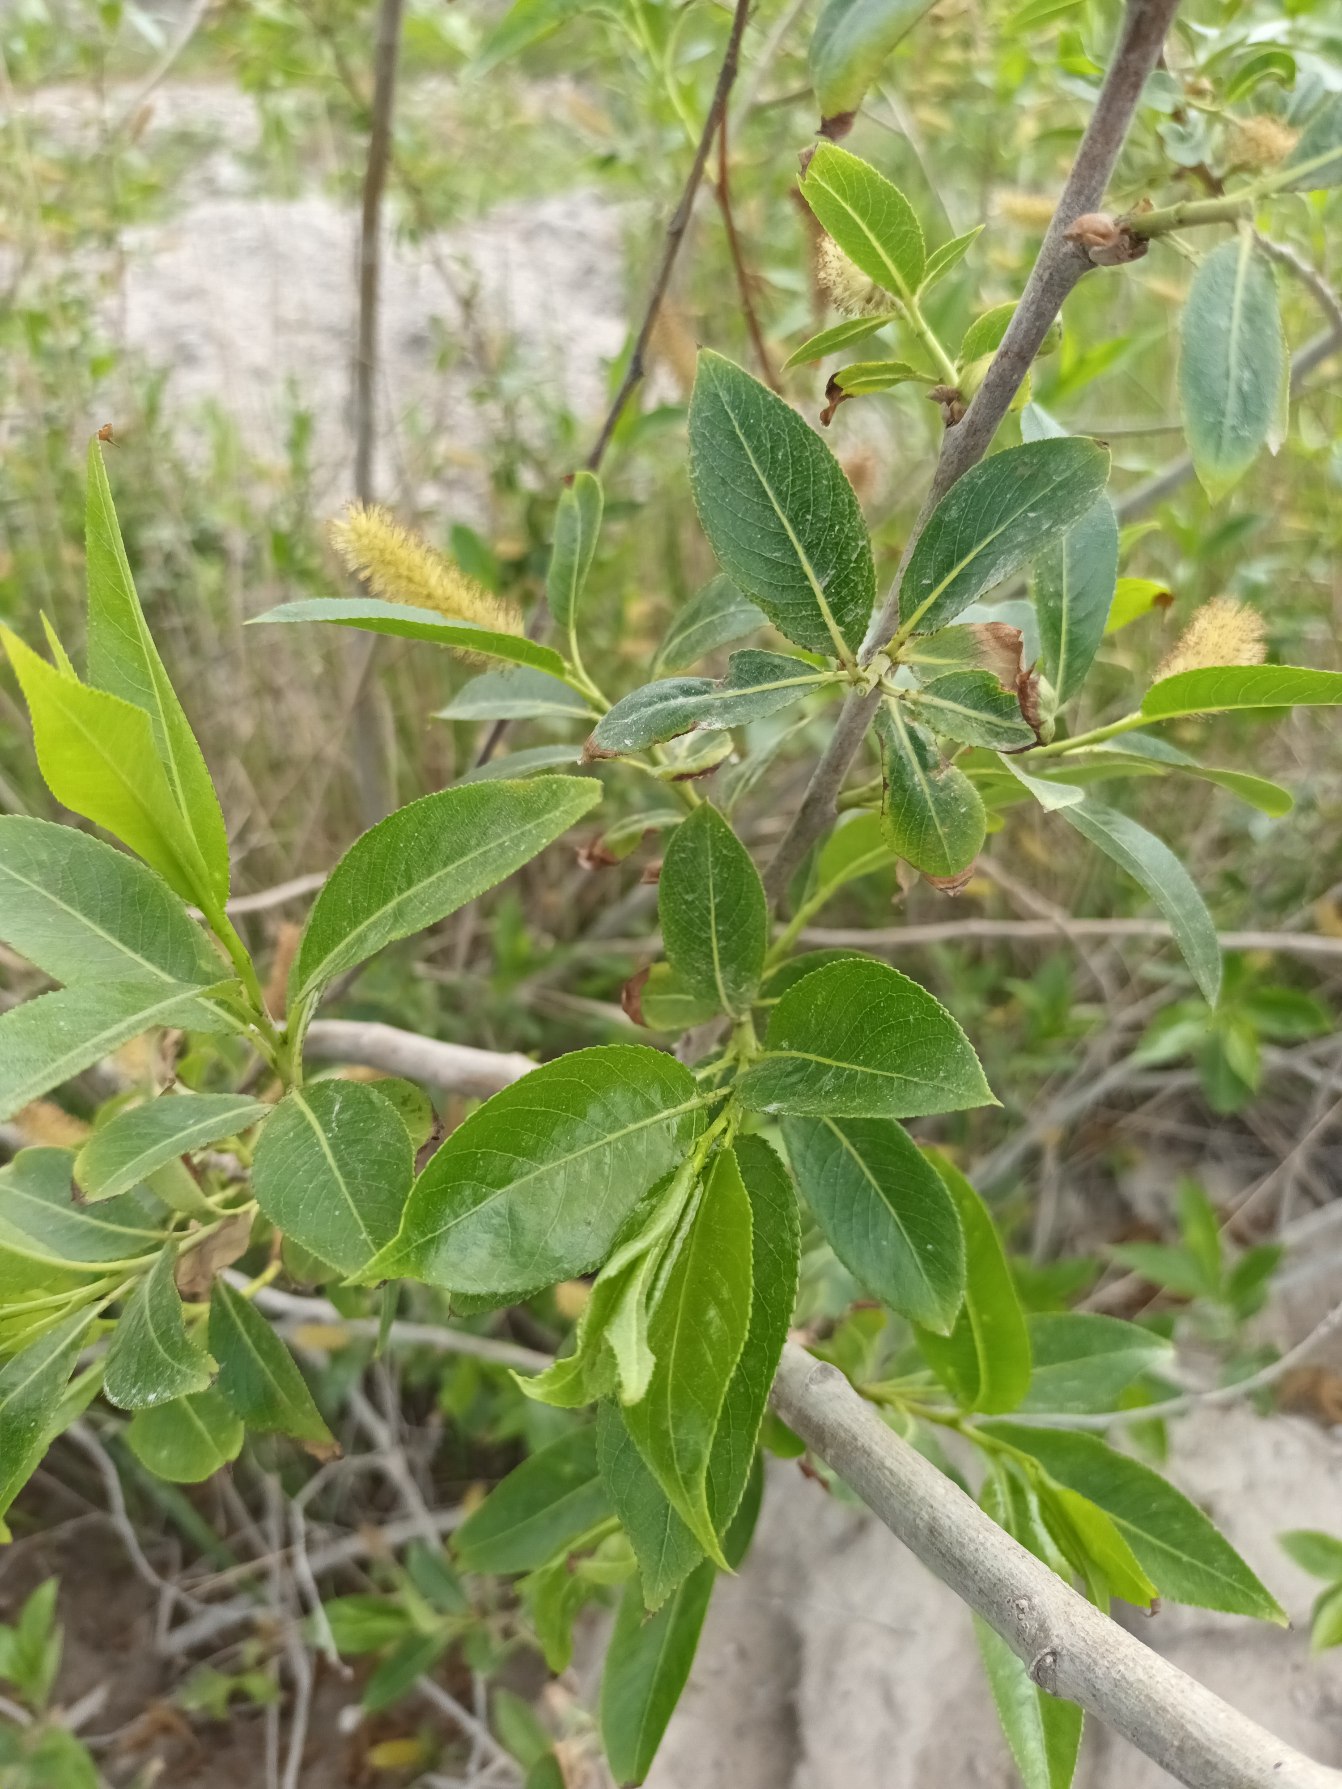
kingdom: Plantae
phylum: Tracheophyta
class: Magnoliopsida
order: Malpighiales
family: Salicaceae
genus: Salix
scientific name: Salix pentandra
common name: Femhannet pil
